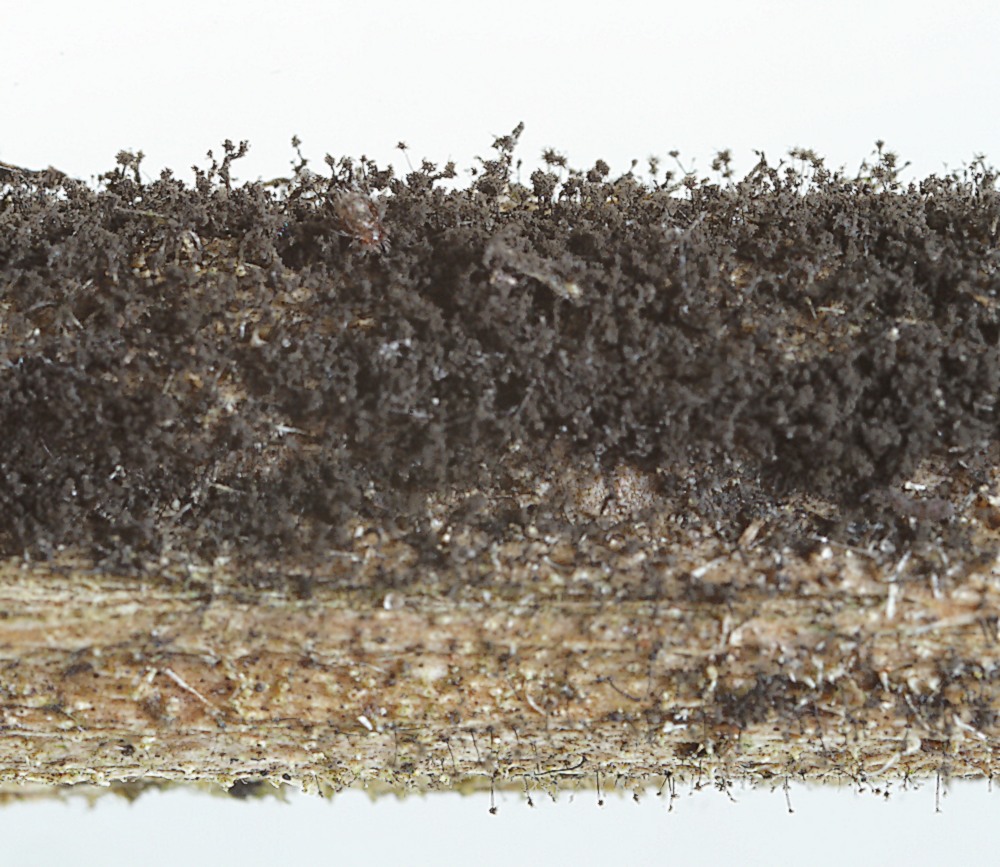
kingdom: Fungi
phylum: Ascomycota
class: Dothideomycetes
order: Pleosporales
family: Torulaceae
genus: Dendryphion
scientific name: Dendryphion comosum
